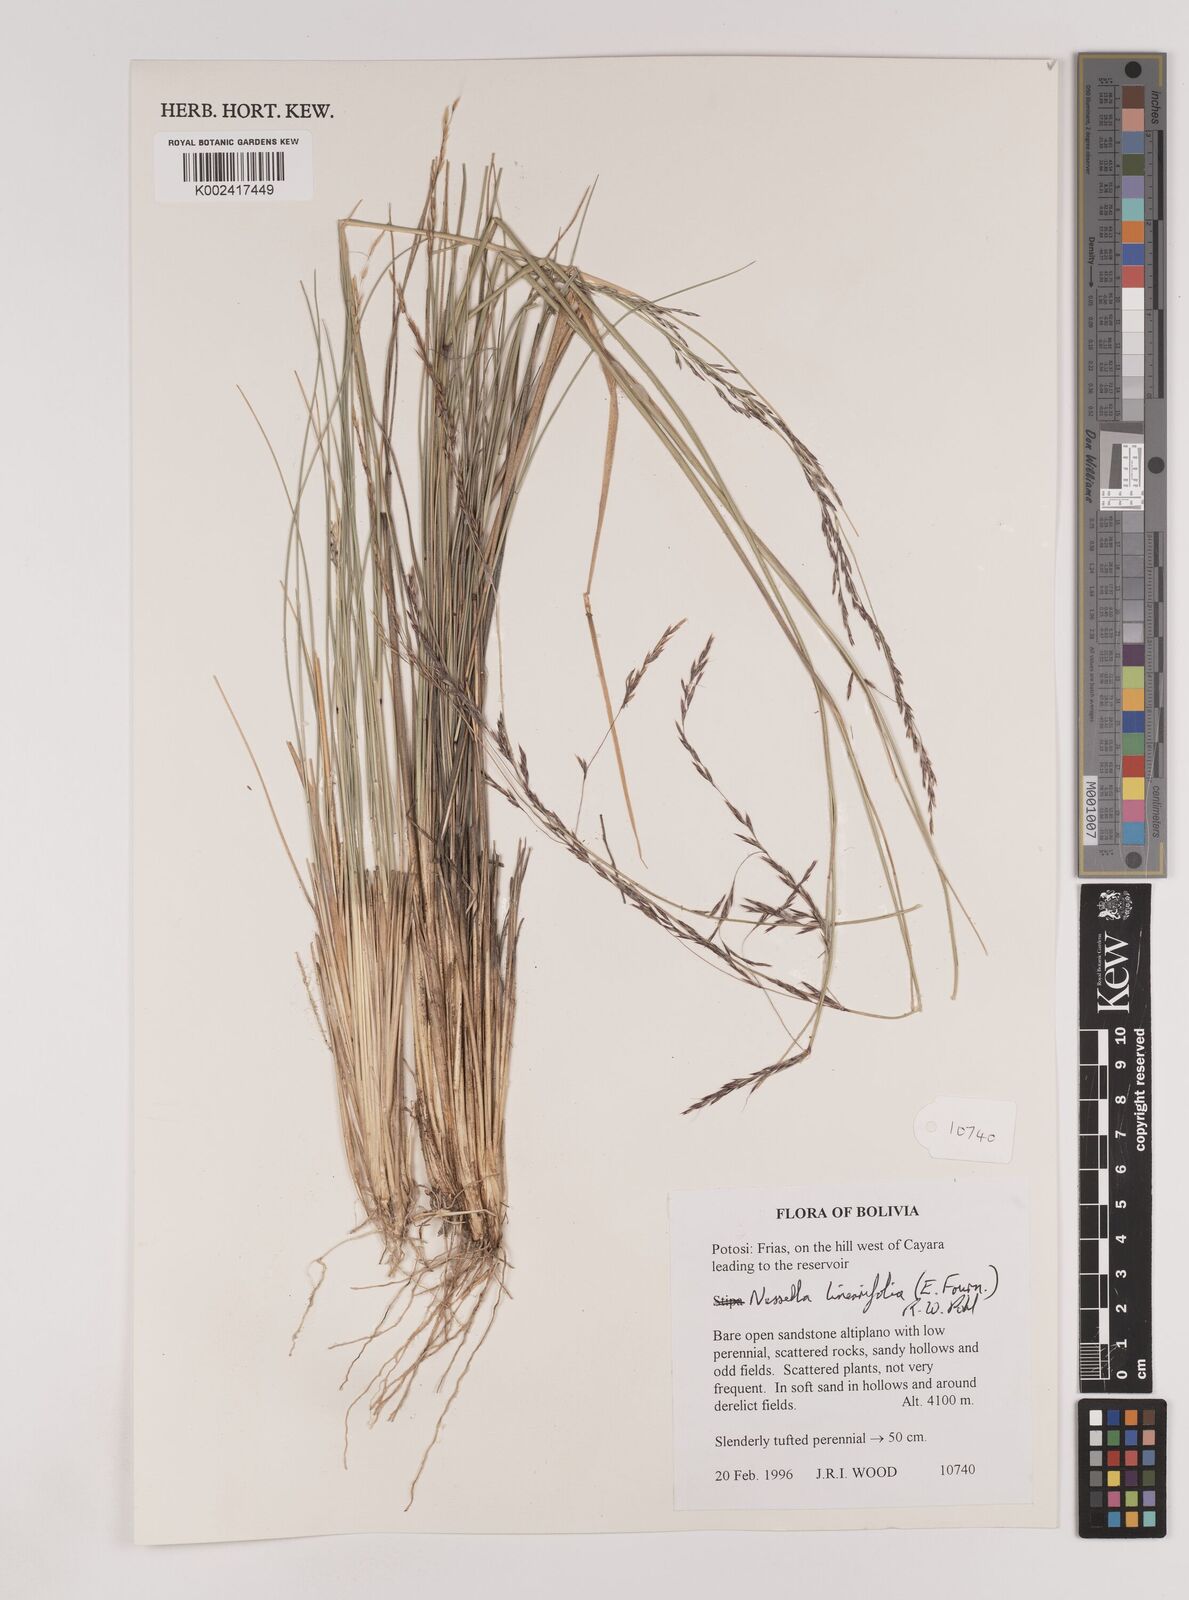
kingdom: Plantae
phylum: Tracheophyta
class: Liliopsida
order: Poales
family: Poaceae
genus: Nassella
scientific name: Nassella caespitosa
